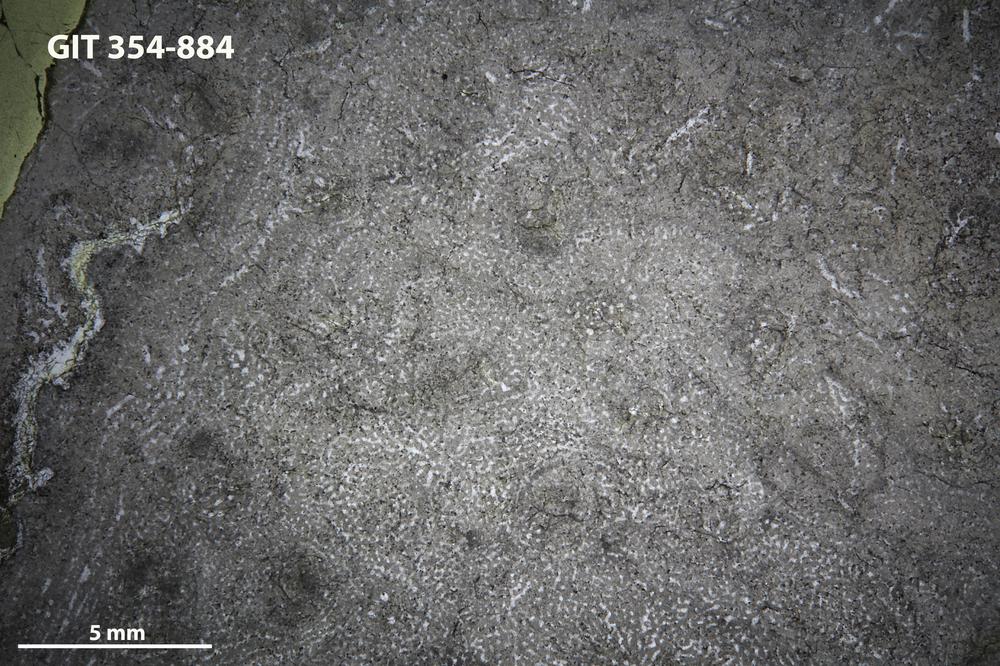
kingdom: Animalia
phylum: Porifera
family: Stromatoporidae
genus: Parallelostroma
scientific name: Parallelostroma
